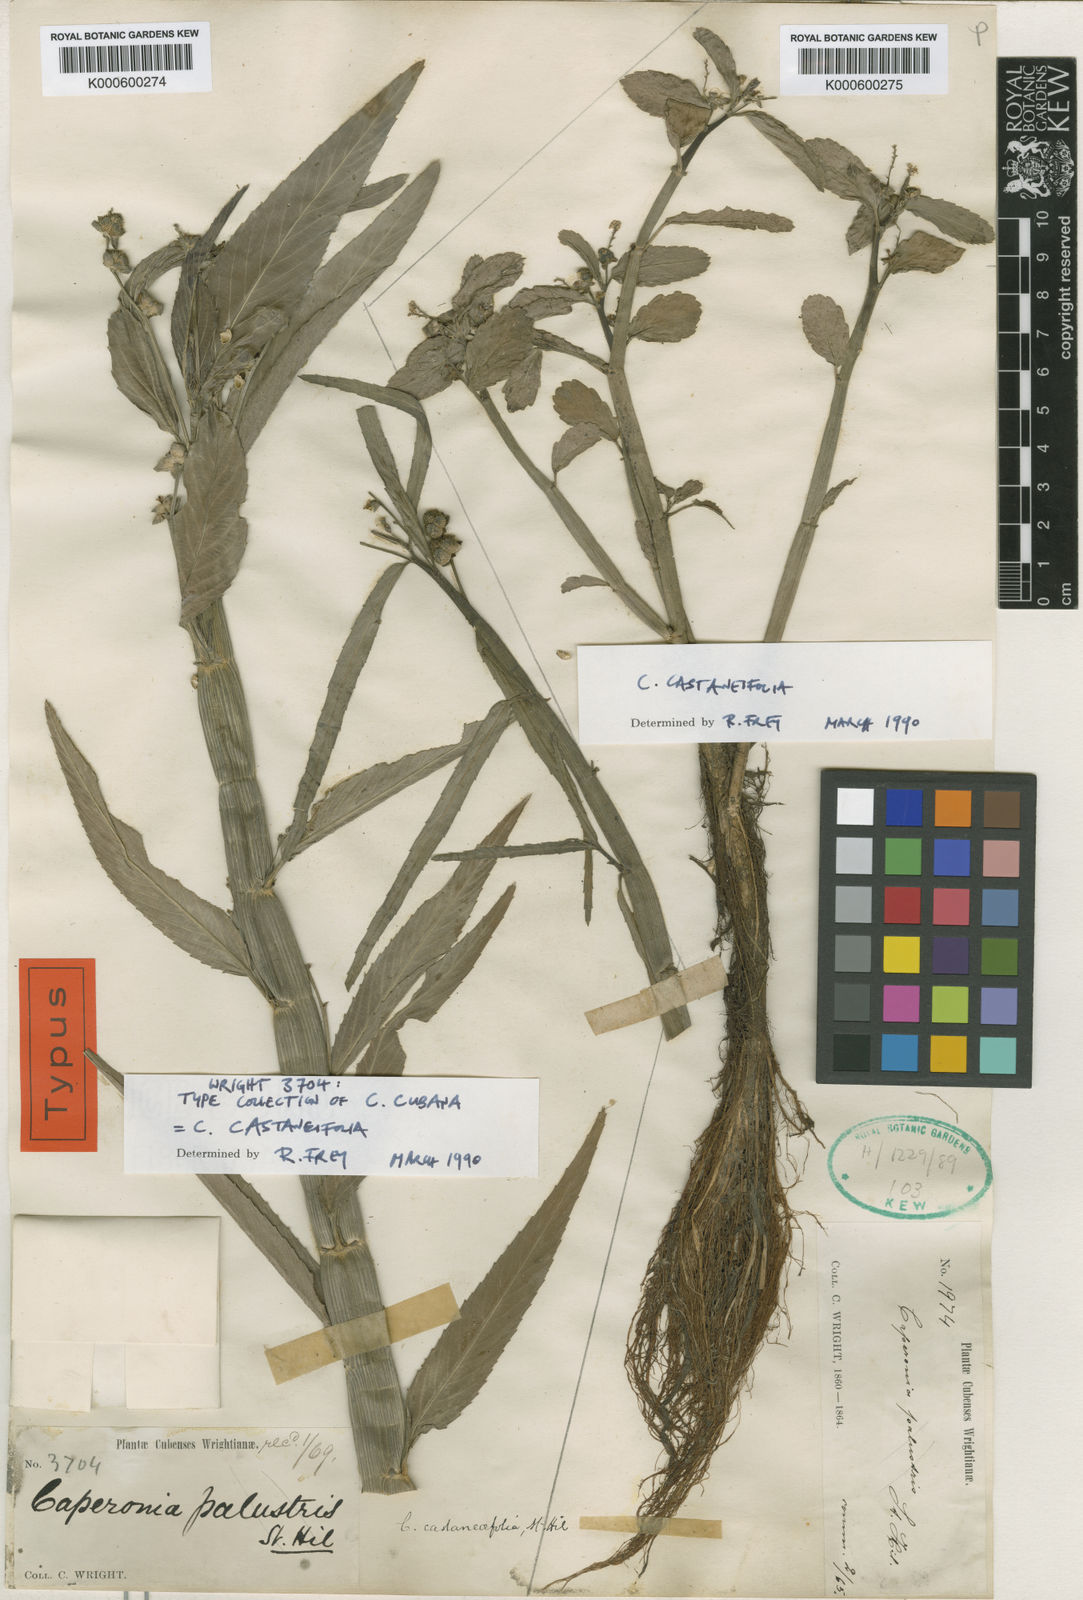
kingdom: Plantae
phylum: Tracheophyta
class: Magnoliopsida
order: Malpighiales
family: Euphorbiaceae
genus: Caperonia
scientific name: Caperonia castaneifolia
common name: Chestnutleaf false croton
